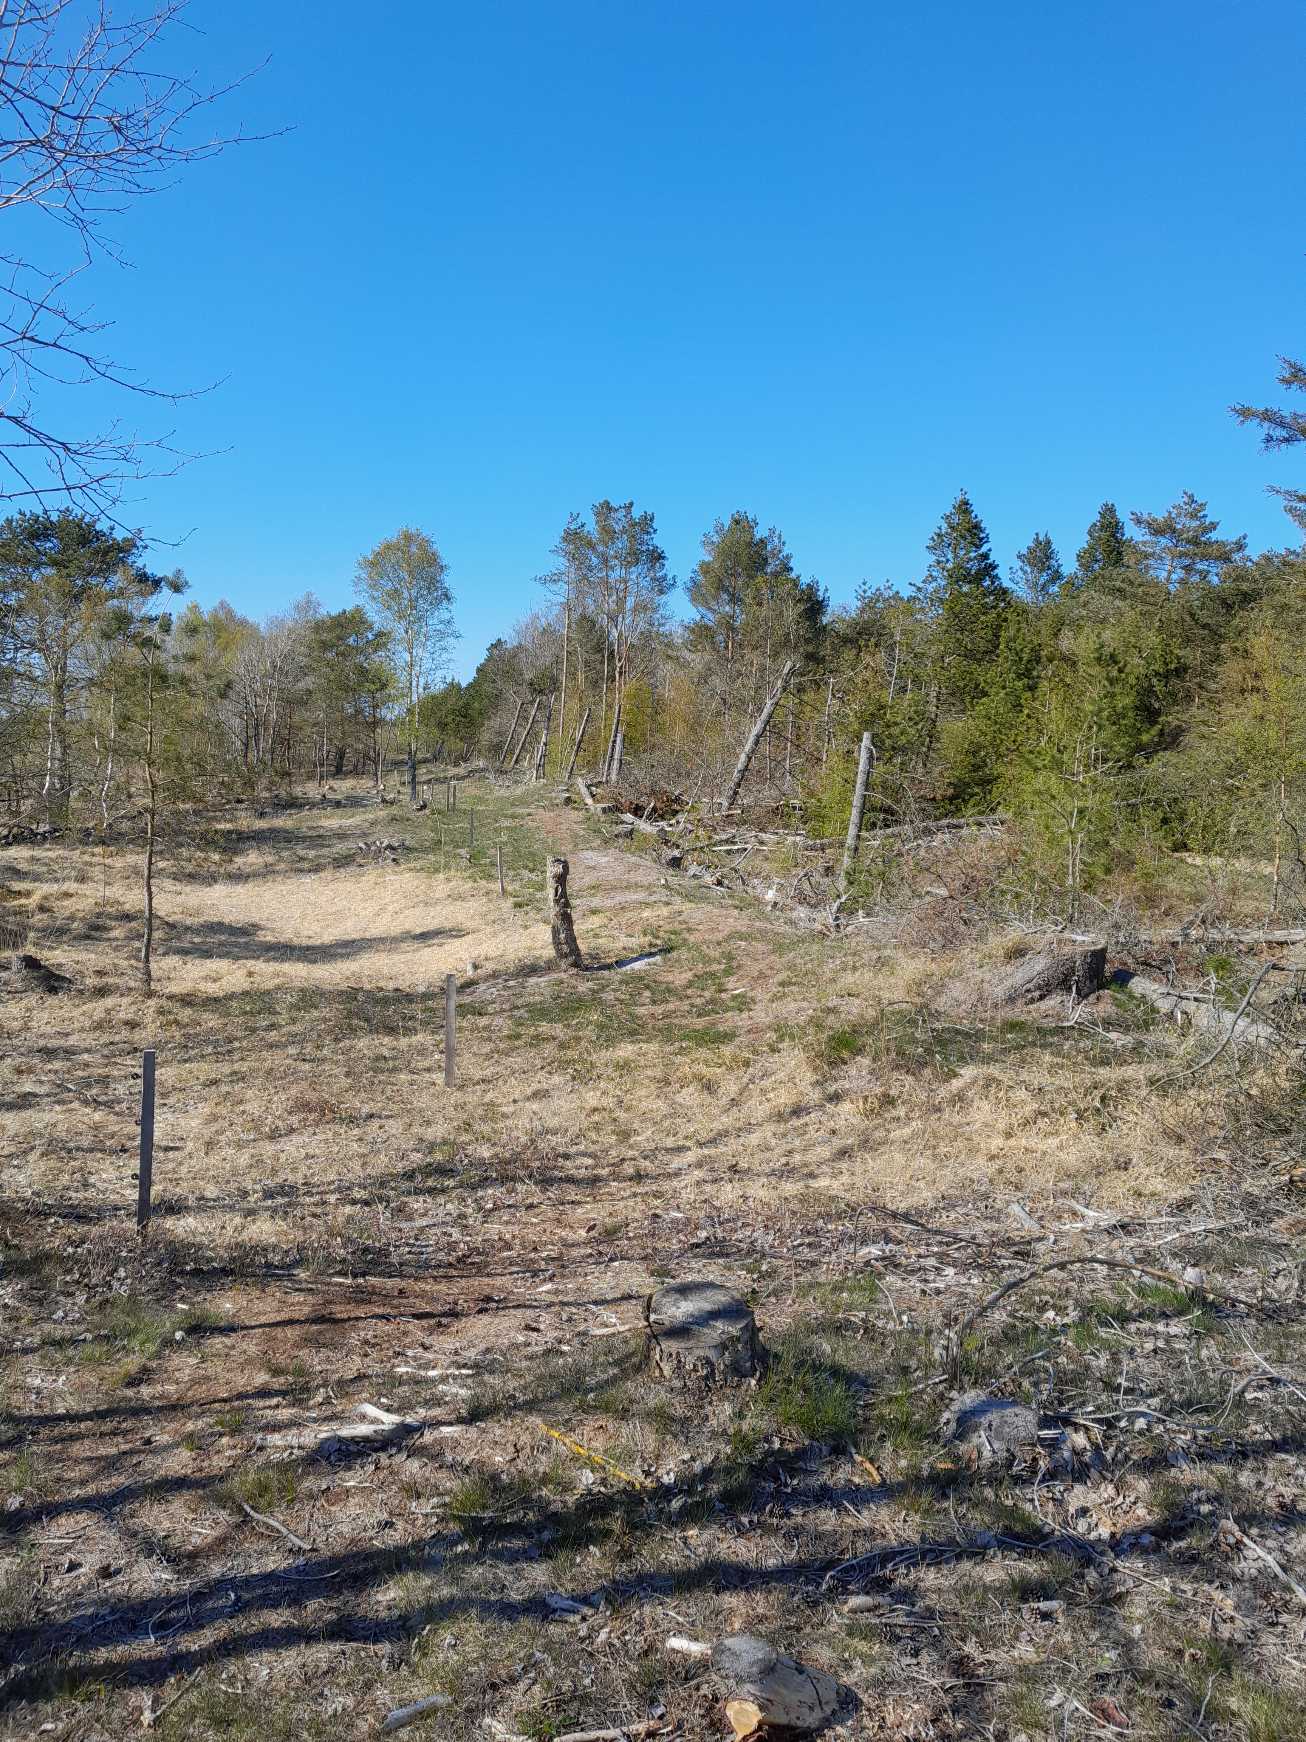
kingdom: Animalia
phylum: Arthropoda
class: Insecta
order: Lepidoptera
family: Nymphalidae
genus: Nymphalis
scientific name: Nymphalis antiopa
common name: Sørgekåbe
